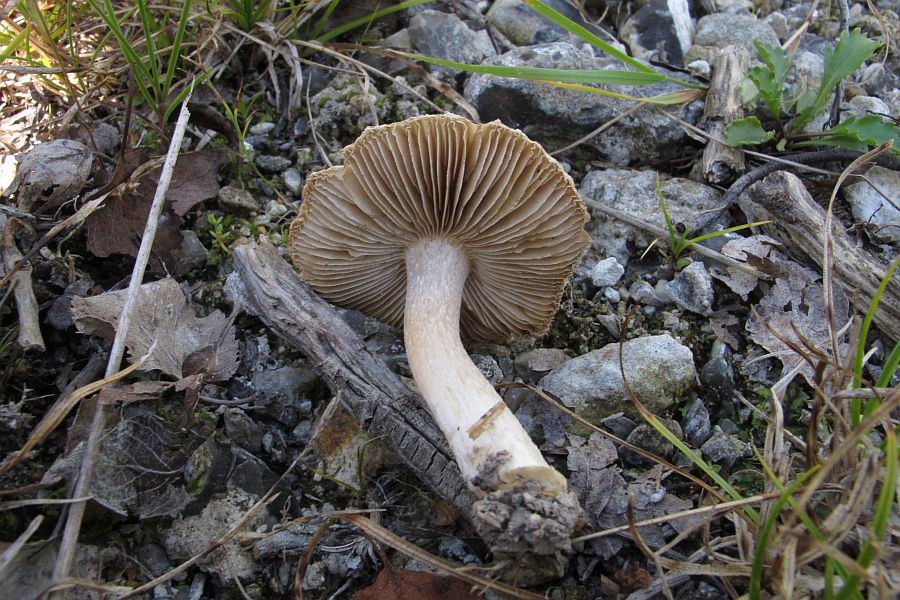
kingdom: Fungi
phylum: Basidiomycota
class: Agaricomycetes
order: Agaricales
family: Inocybaceae
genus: Pseudosperma
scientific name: Pseudosperma rimosum
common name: gulbladet trævlhat
